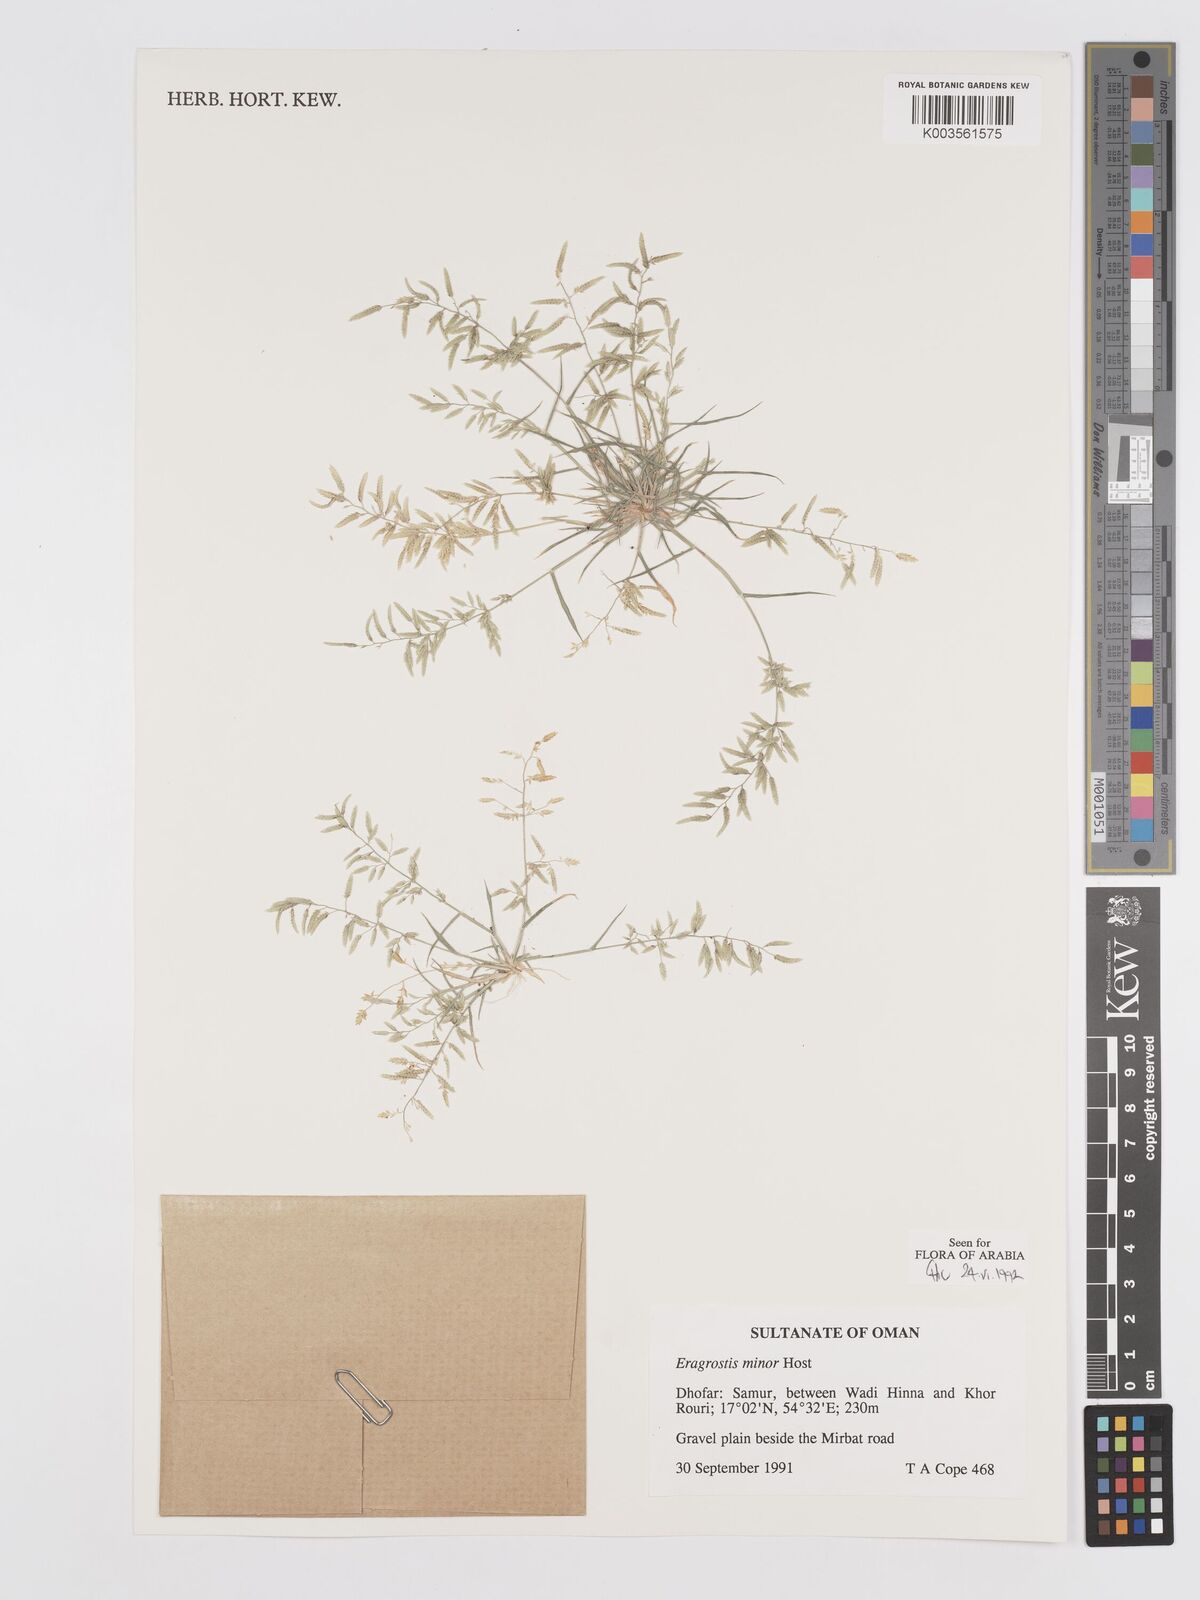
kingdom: Plantae
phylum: Tracheophyta
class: Liliopsida
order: Poales
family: Poaceae
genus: Eragrostis
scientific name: Eragrostis minor
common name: Small love-grass
